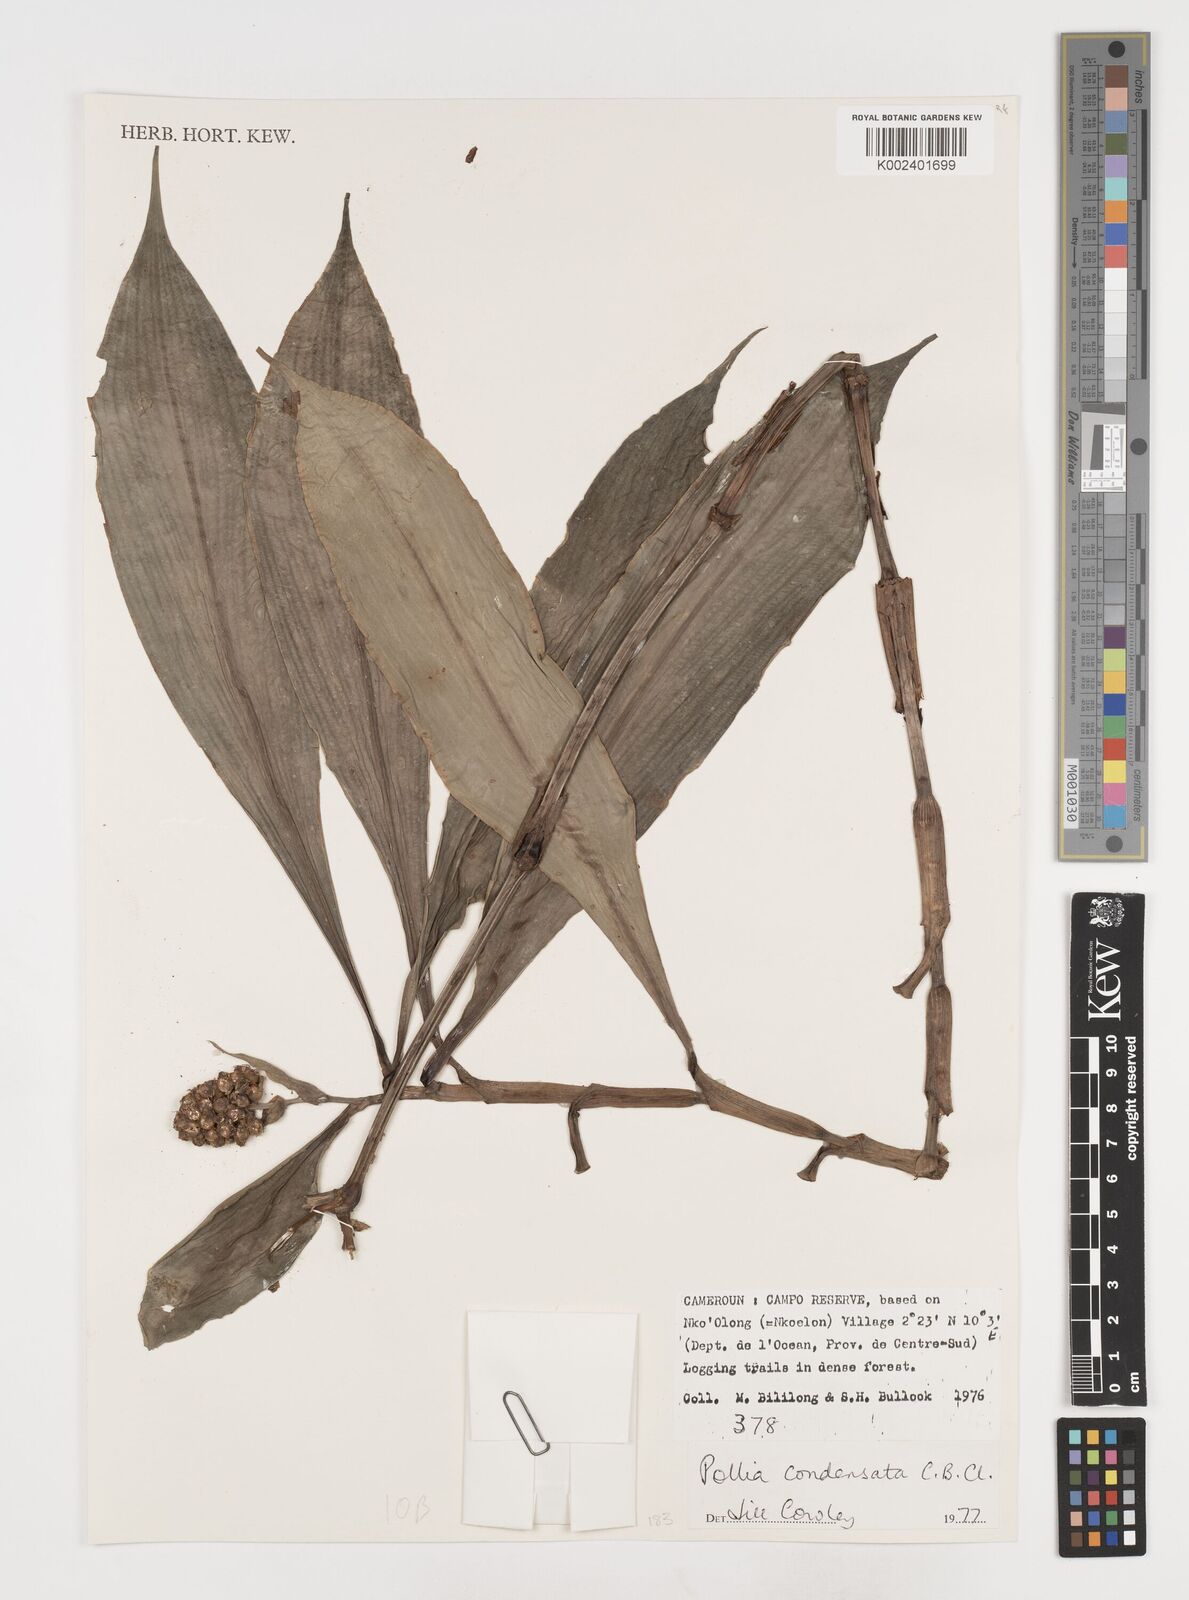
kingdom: Plantae
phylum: Tracheophyta
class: Liliopsida
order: Commelinales
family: Commelinaceae
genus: Pollia
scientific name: Pollia condensata
